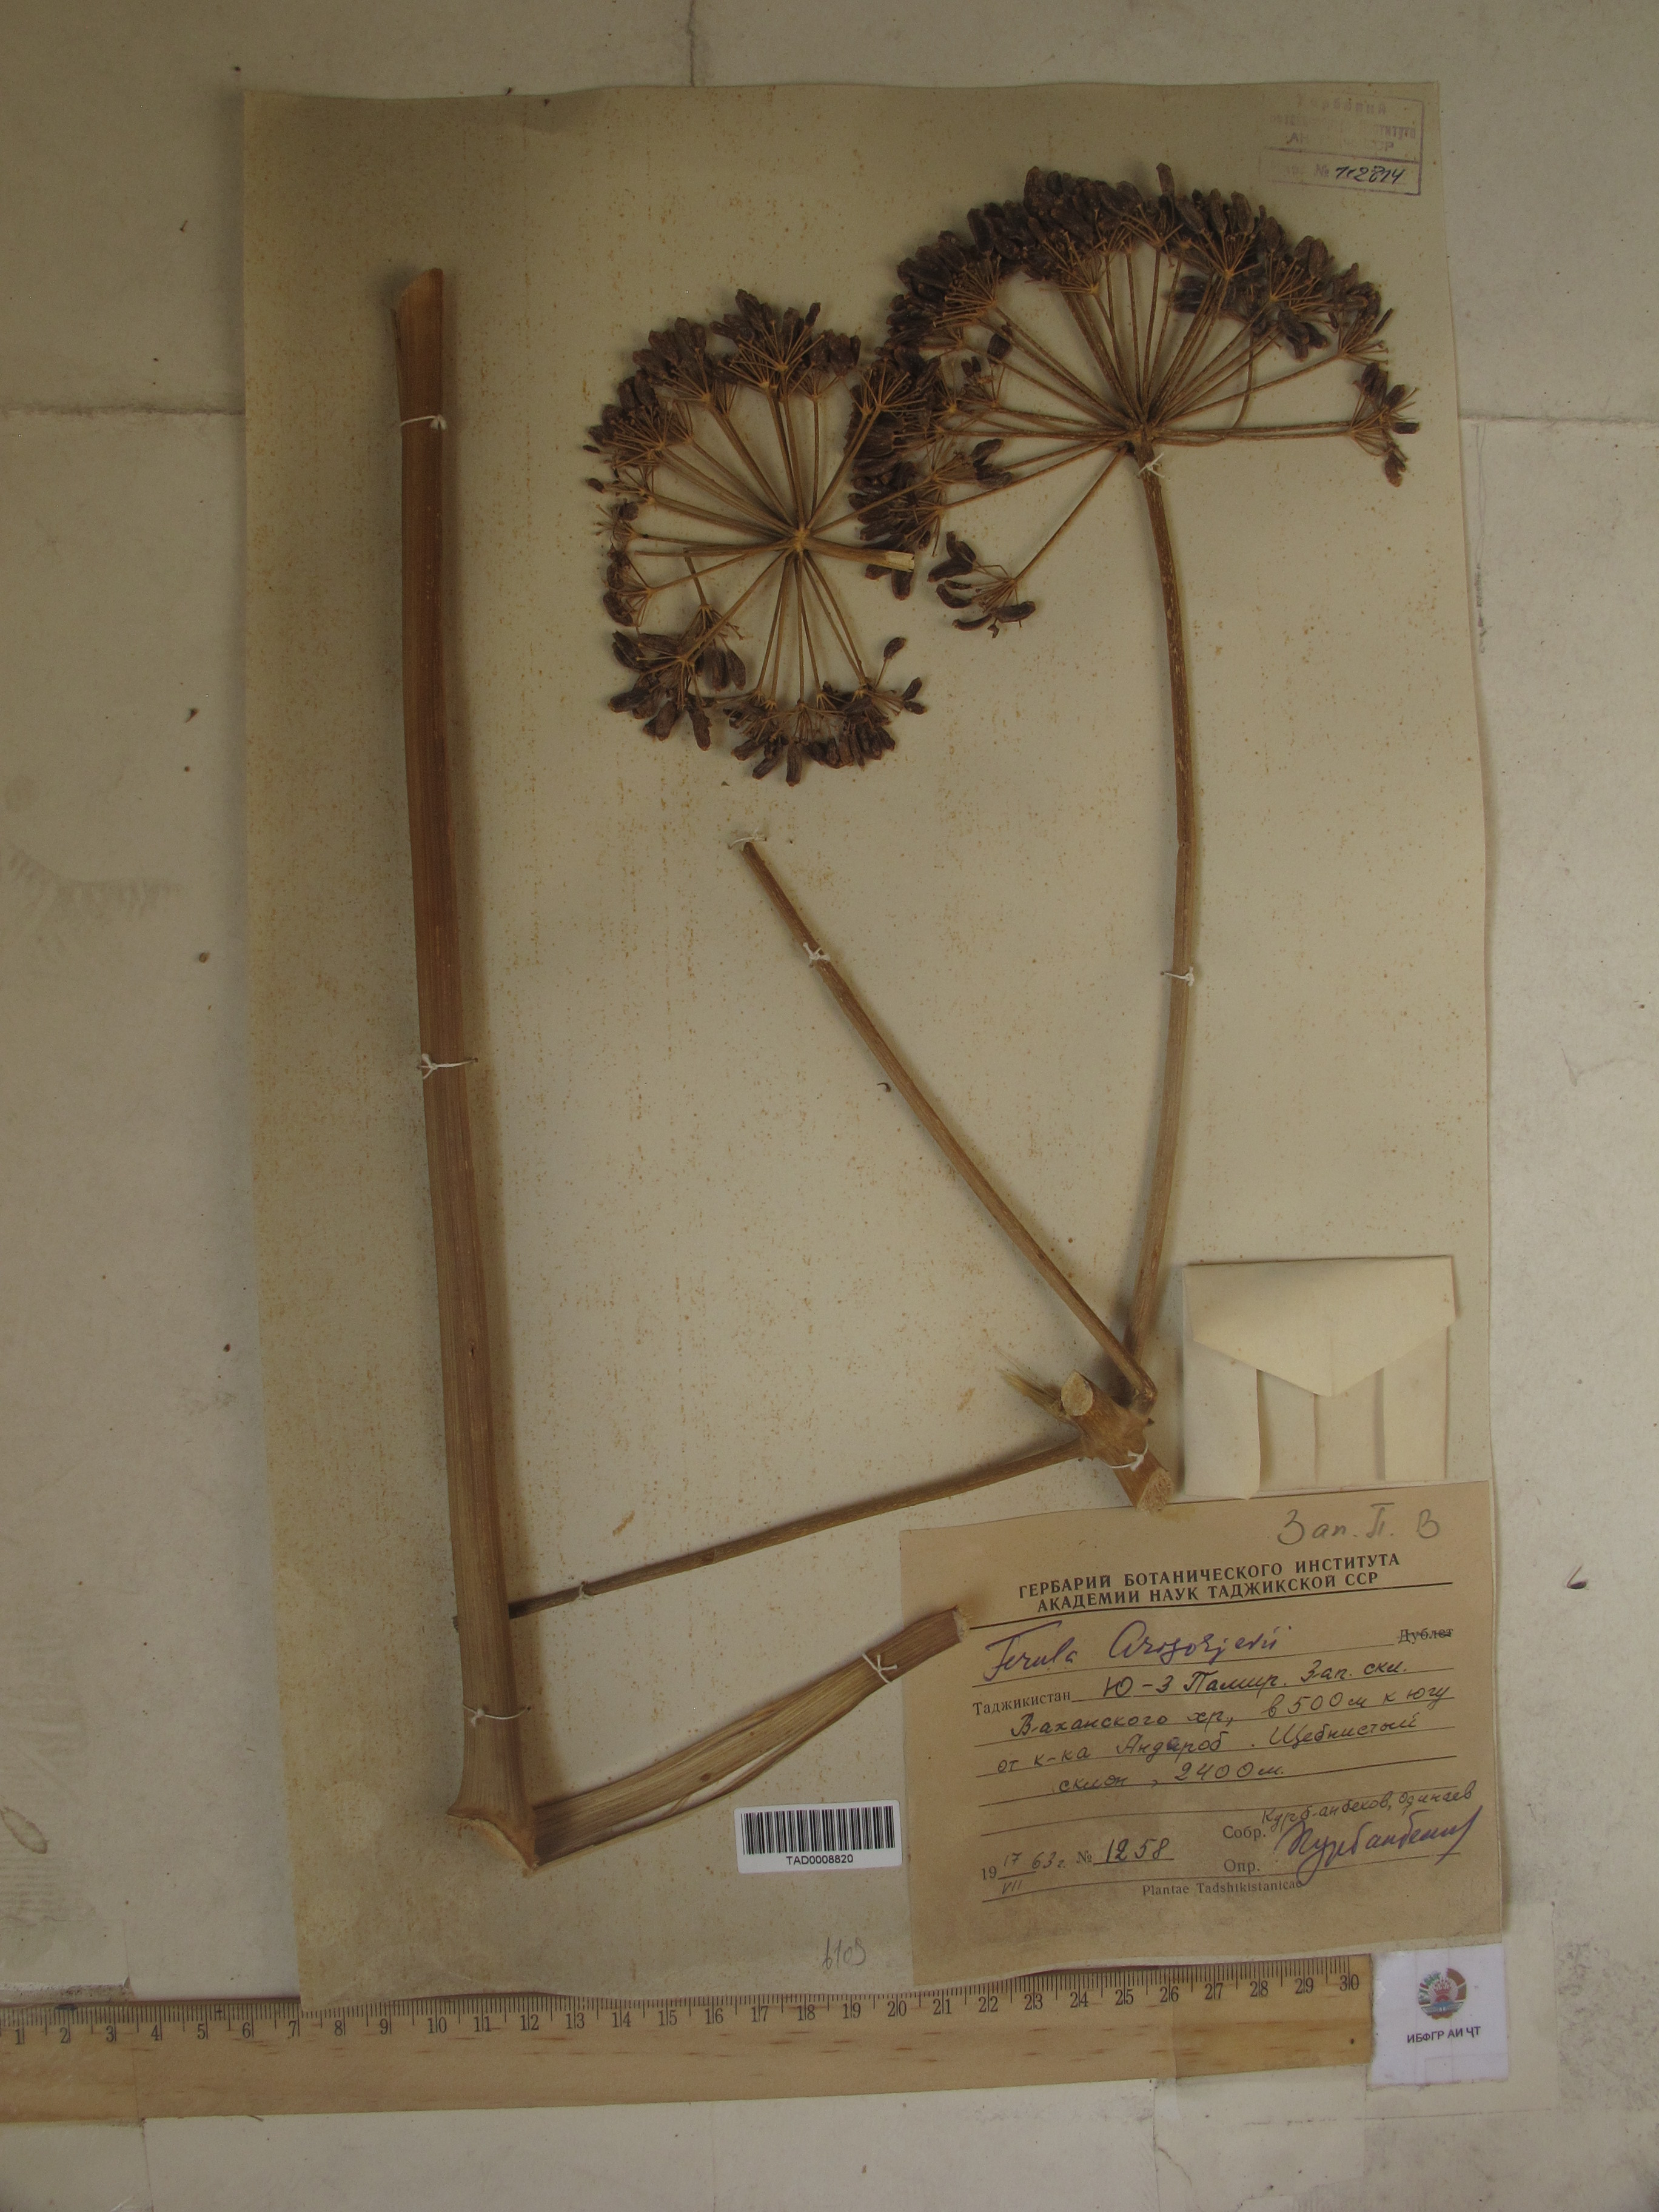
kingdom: Plantae
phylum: Tracheophyta
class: Magnoliopsida
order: Apiales
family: Apiaceae
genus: Ferula
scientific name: Ferula grigoriewii
